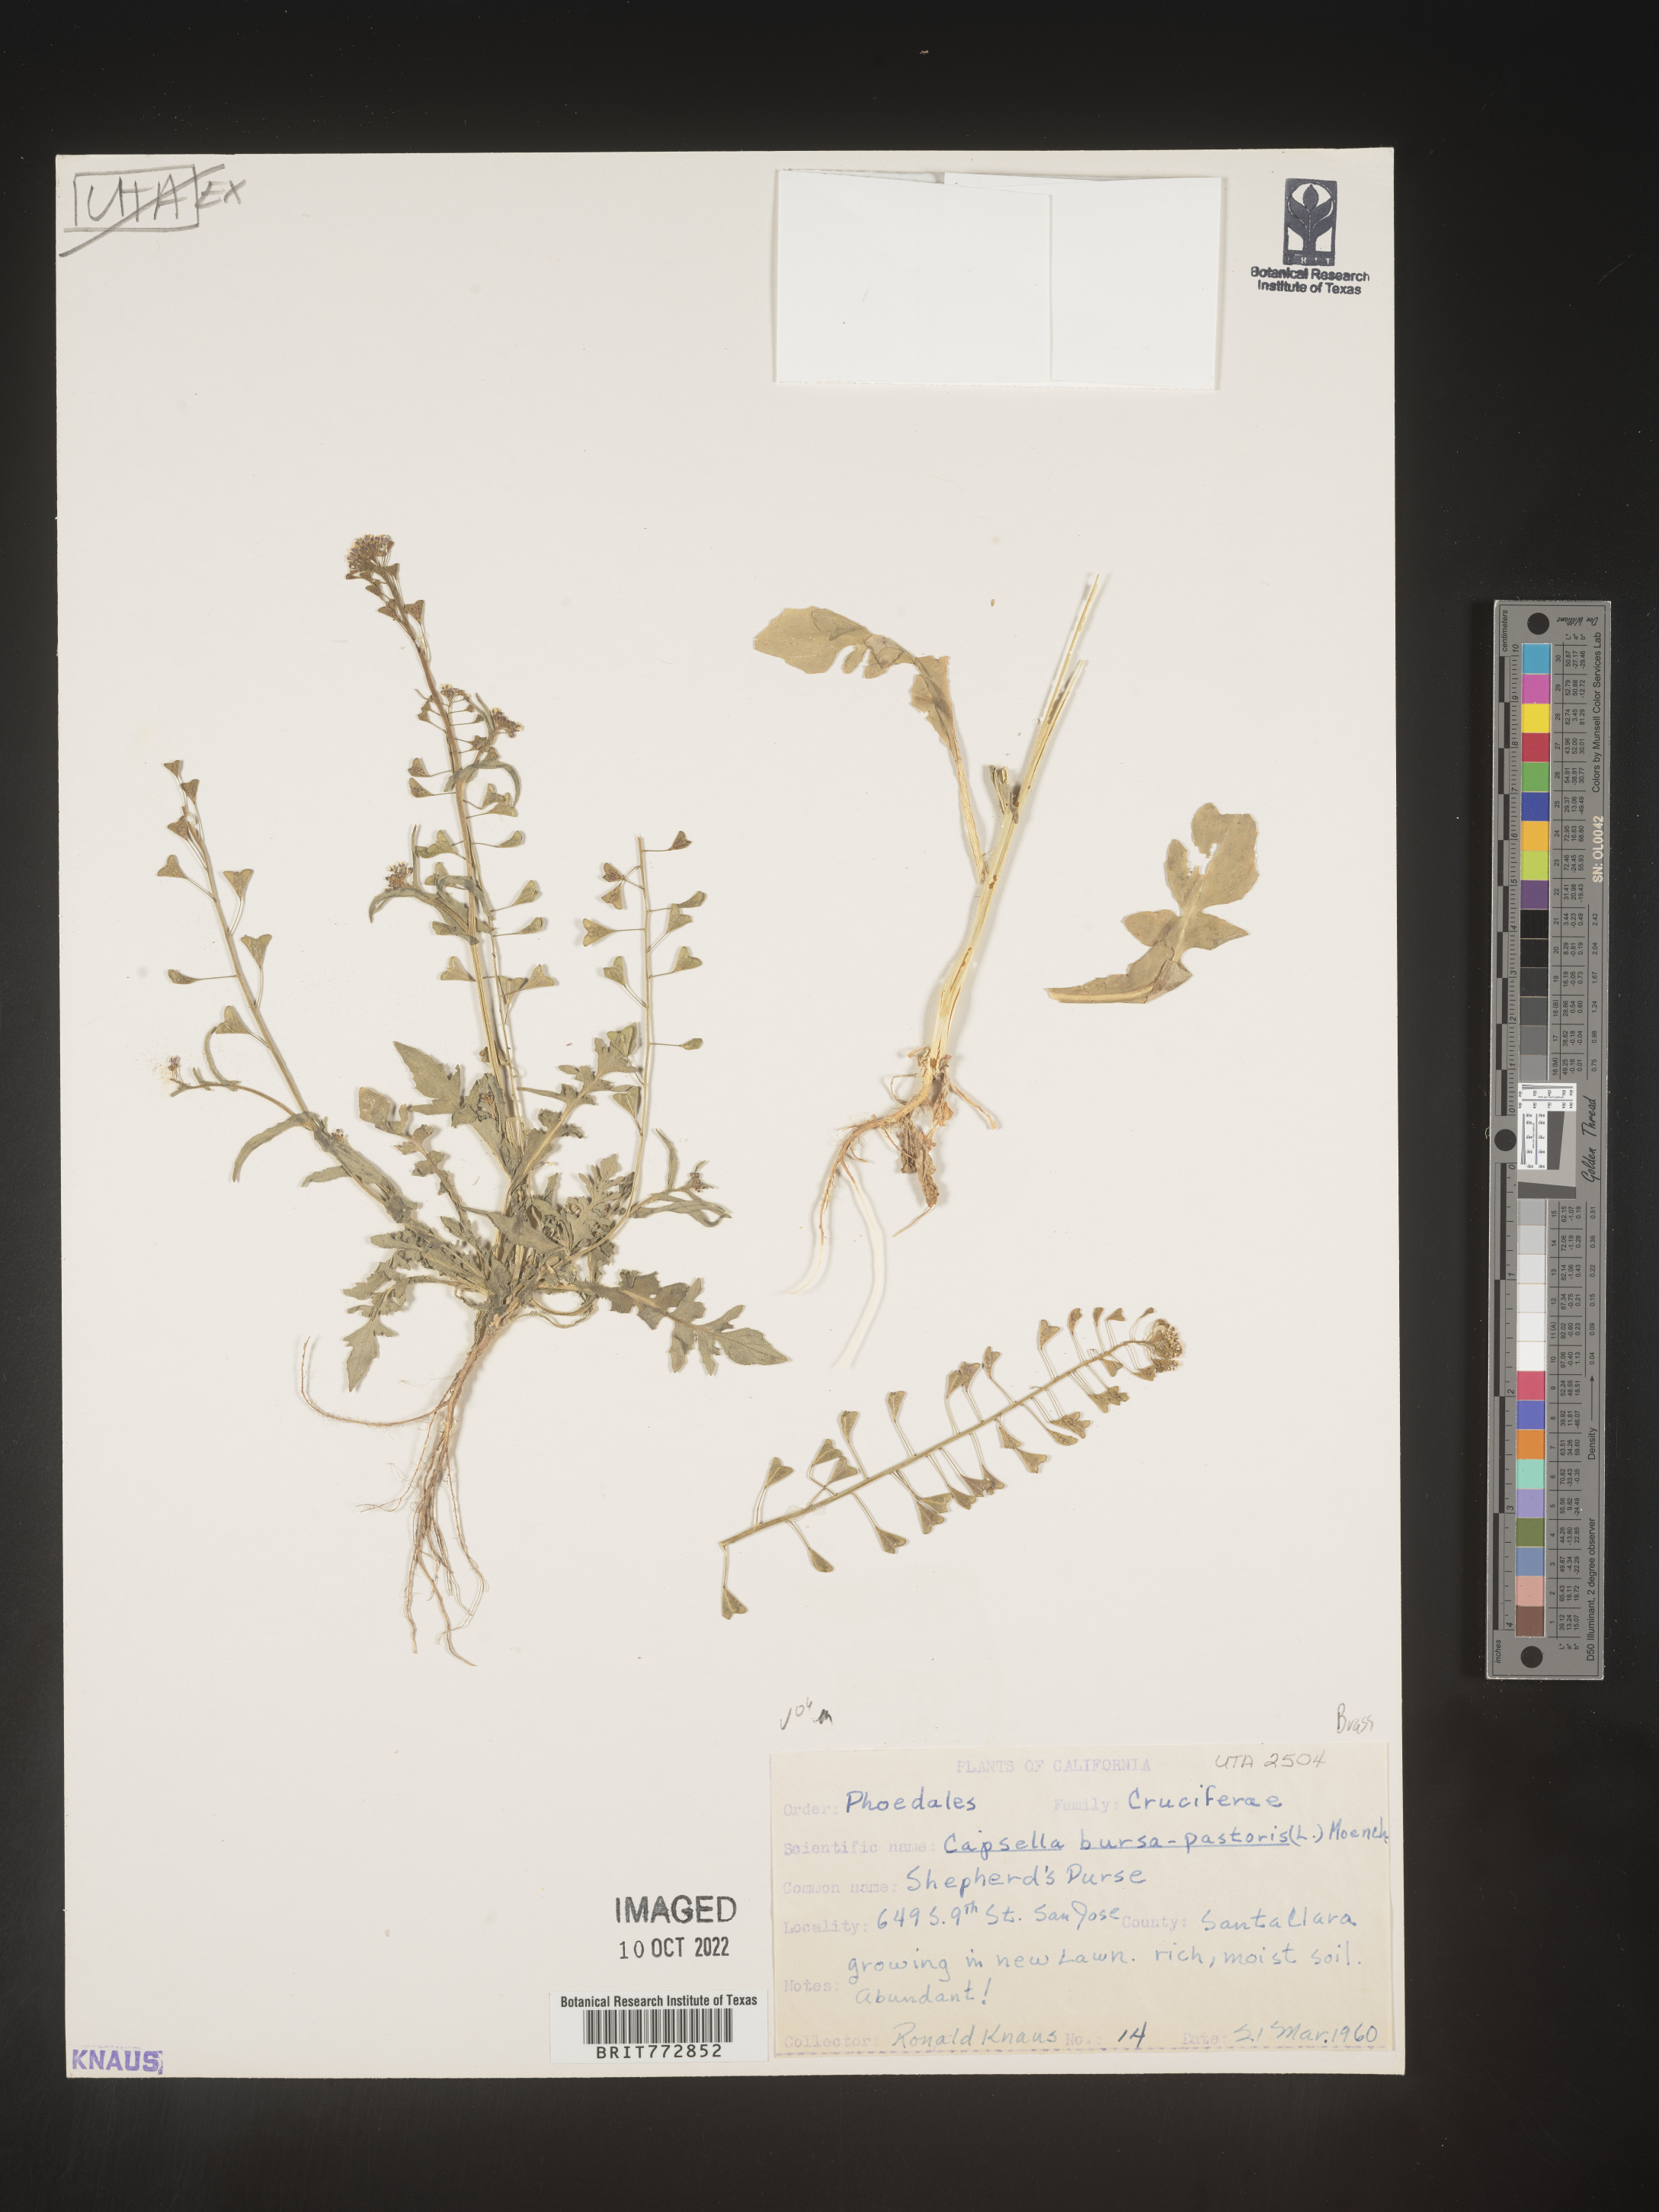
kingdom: Plantae
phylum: Tracheophyta
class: Magnoliopsida
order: Brassicales
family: Brassicaceae
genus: Capsella
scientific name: Capsella bursa-pastoris
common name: Shepherd's purse
